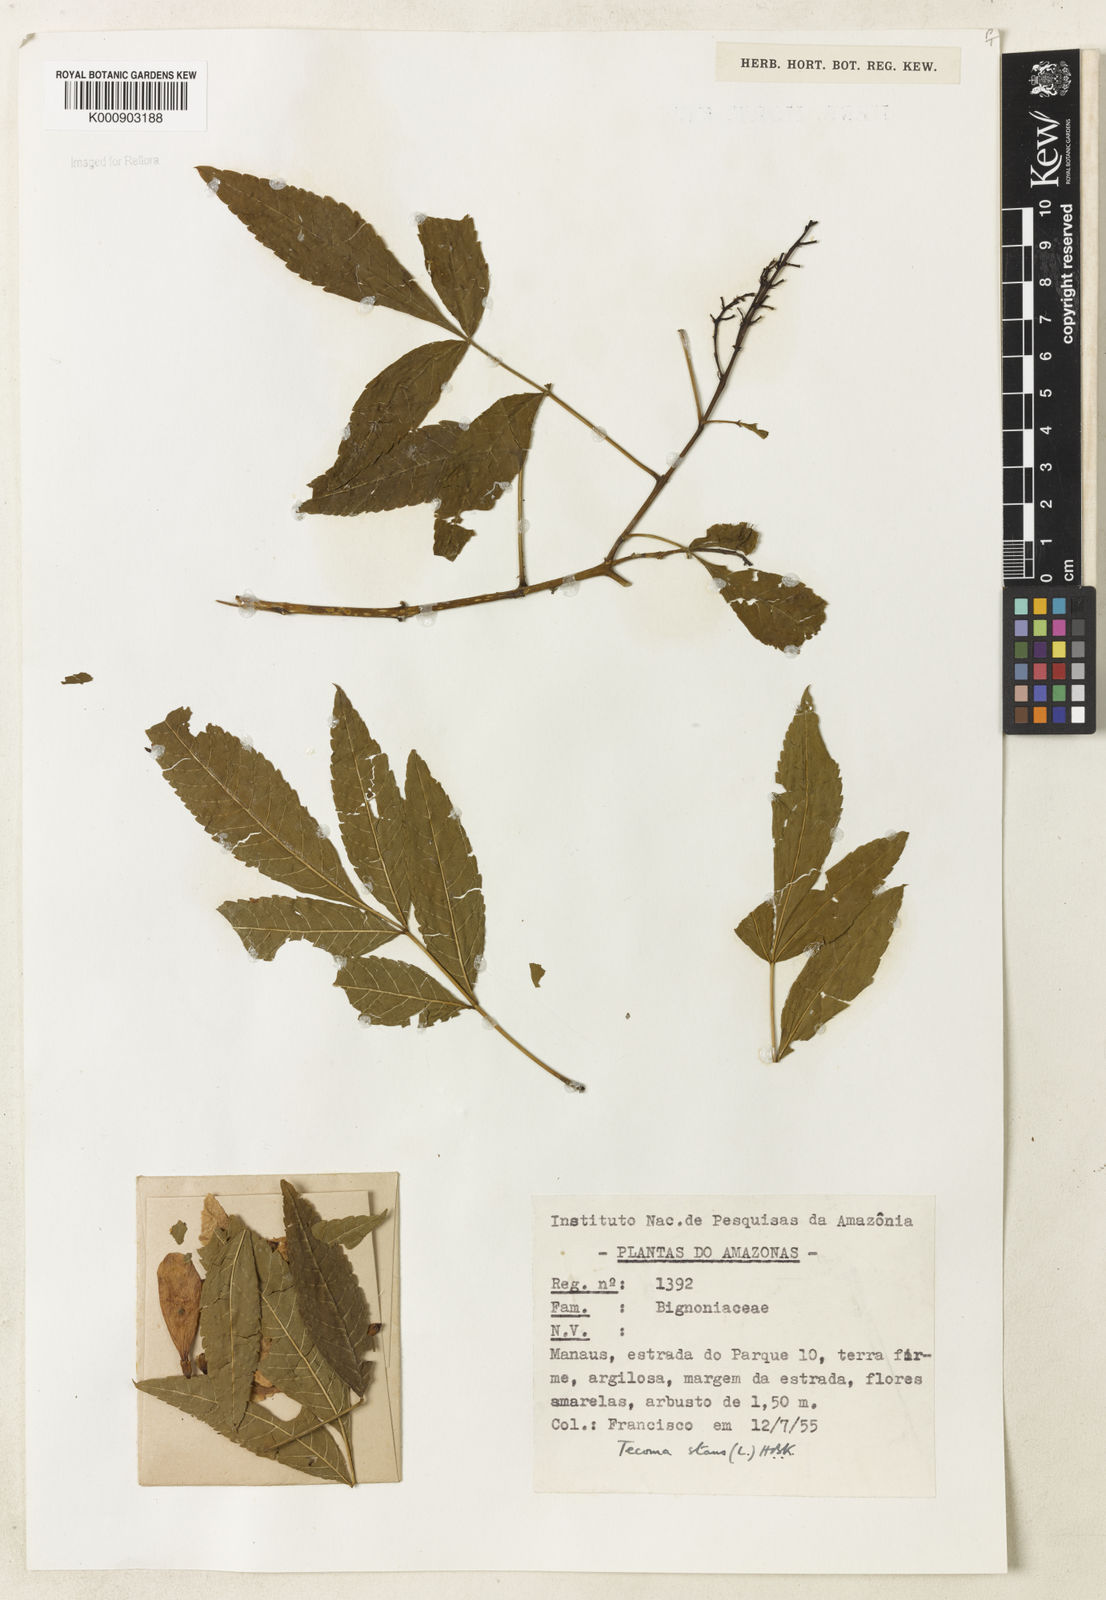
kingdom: Plantae
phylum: Tracheophyta
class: Magnoliopsida
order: Lamiales
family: Bignoniaceae
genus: Tecoma
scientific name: Tecoma stans
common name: Yellow trumpetbush
